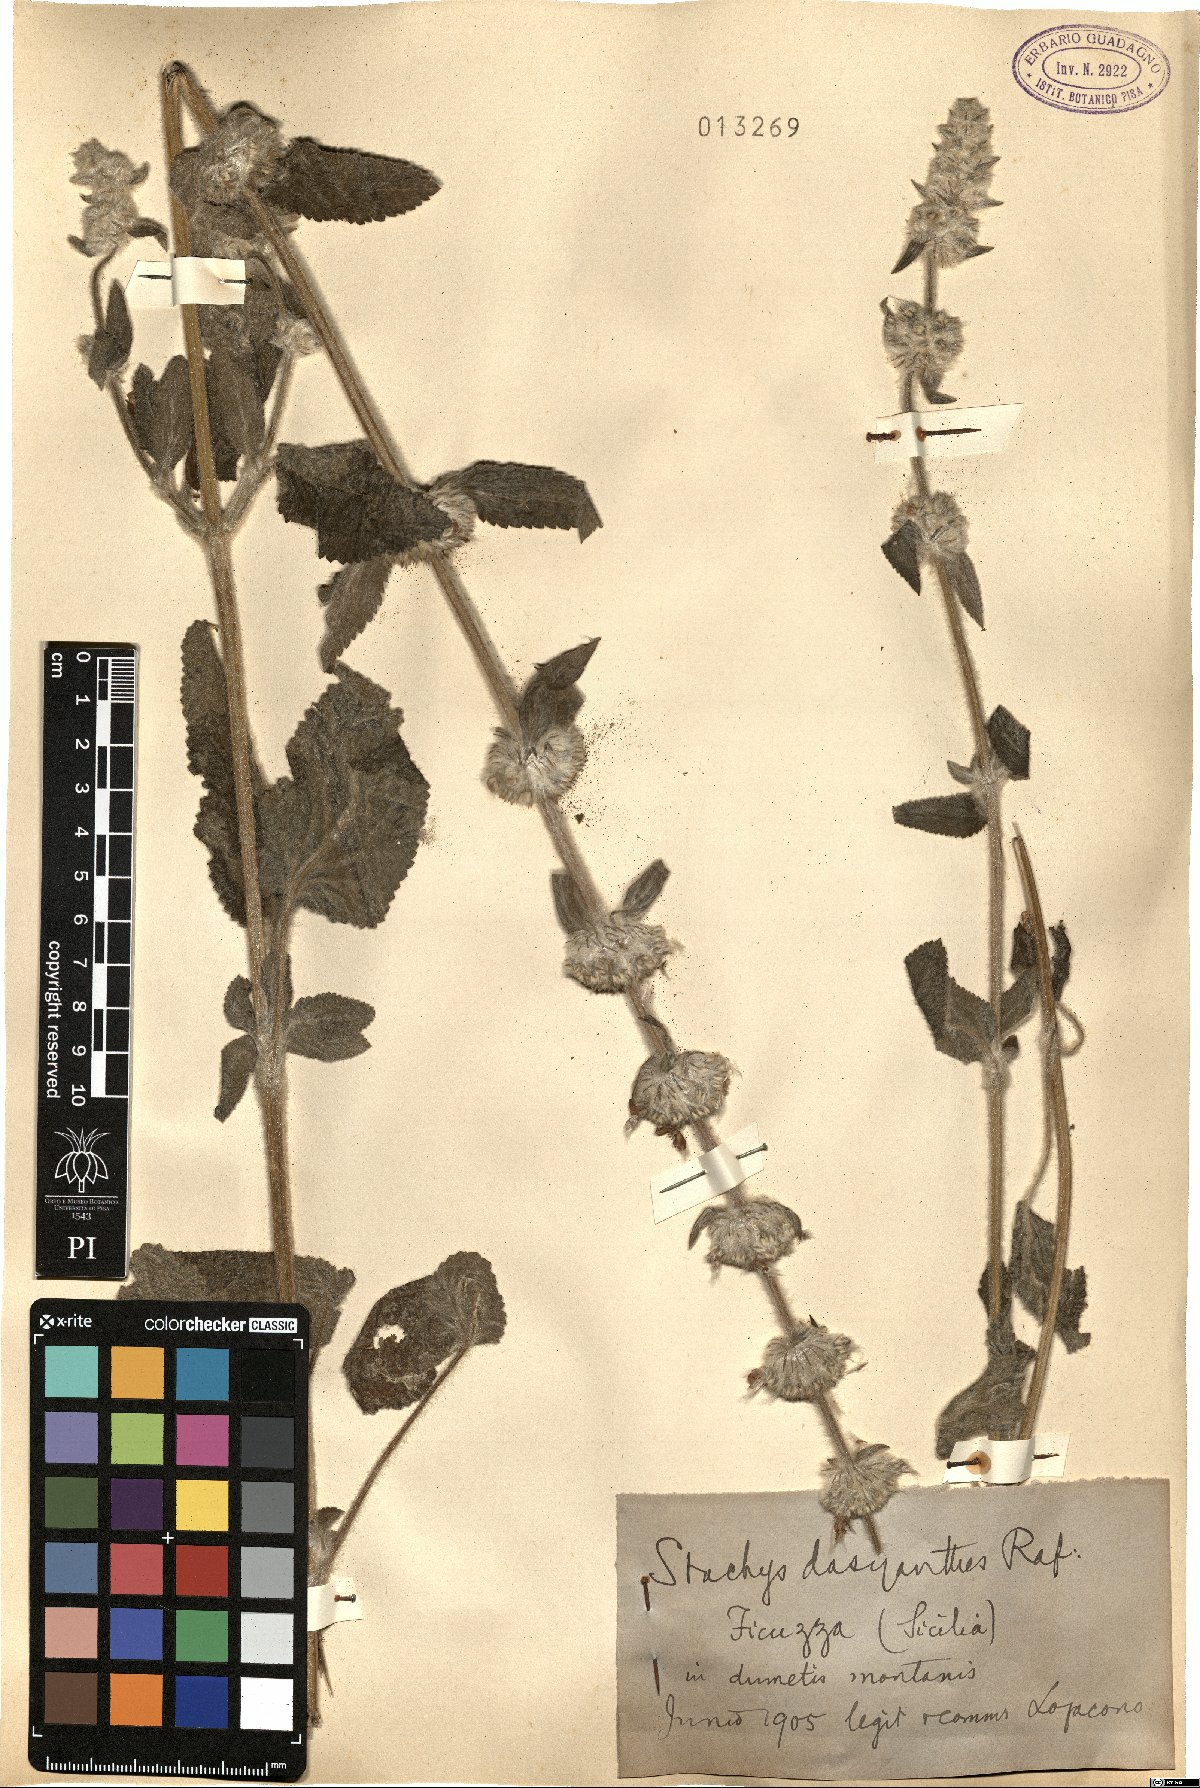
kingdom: Plantae
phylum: Tracheophyta
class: Magnoliopsida
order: Lamiales
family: Lamiaceae
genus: Stachys
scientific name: Stachys germanica
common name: Downy woundwort
